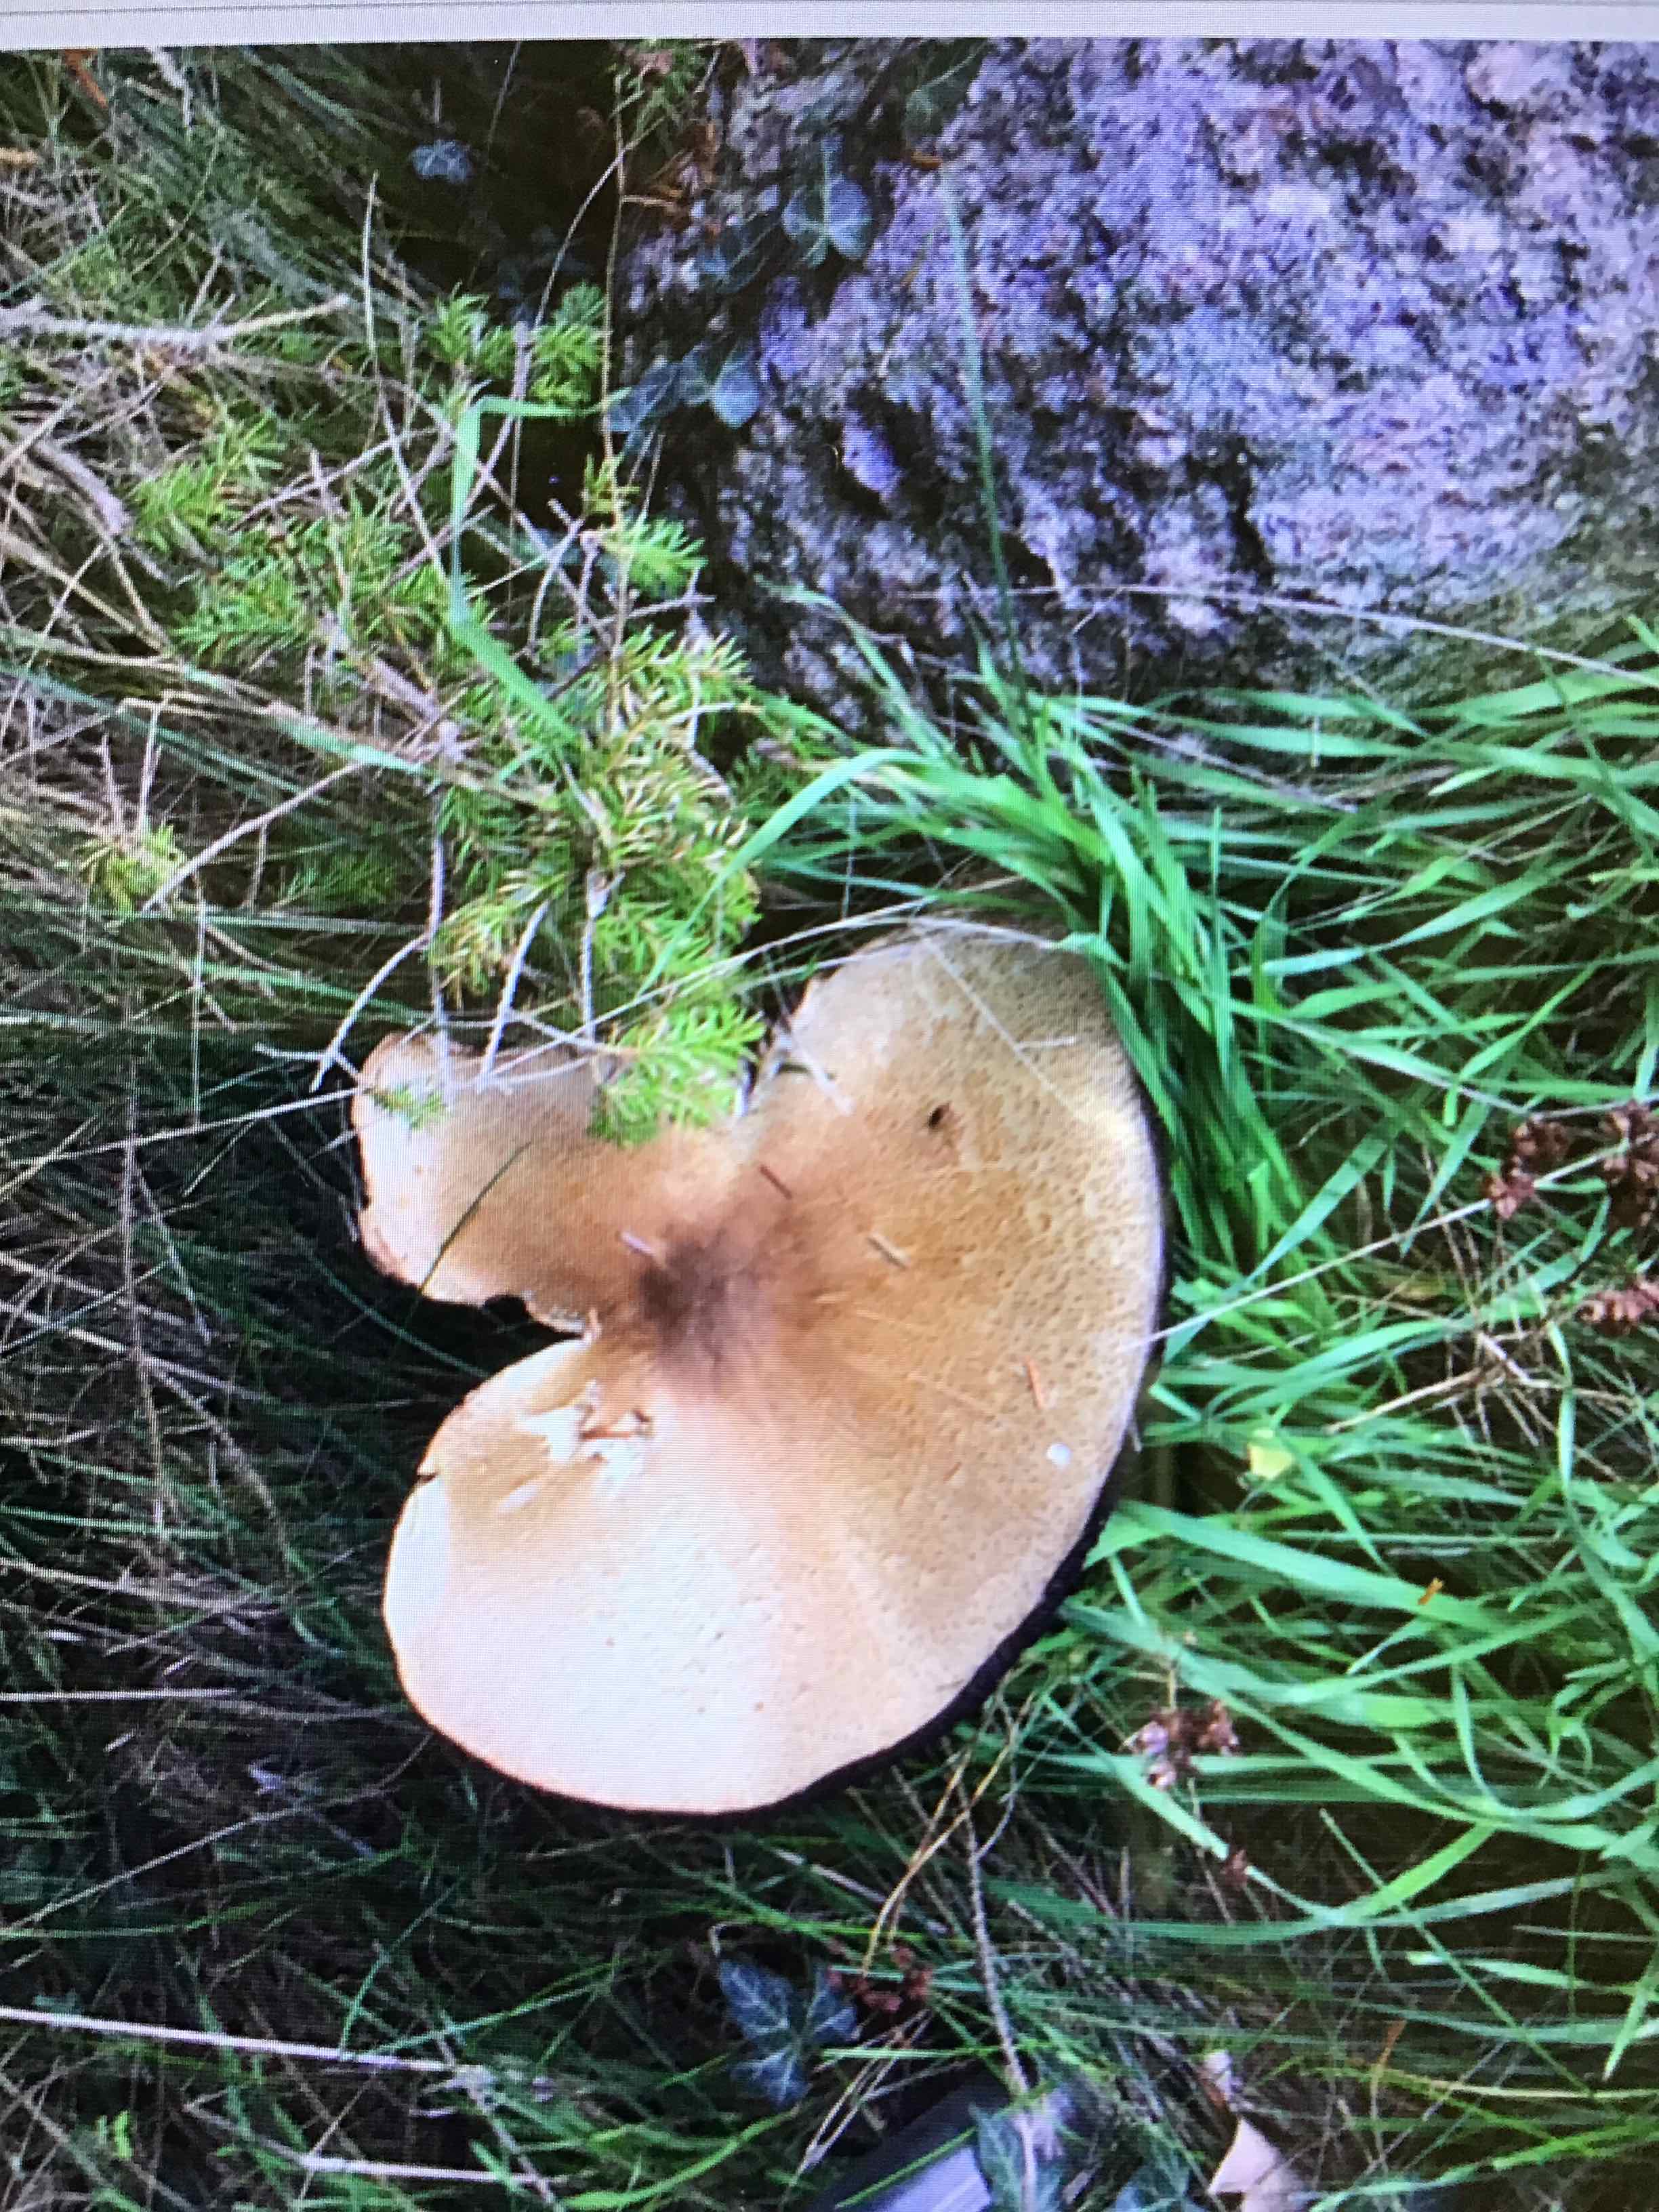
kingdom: Fungi
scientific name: Fungi
